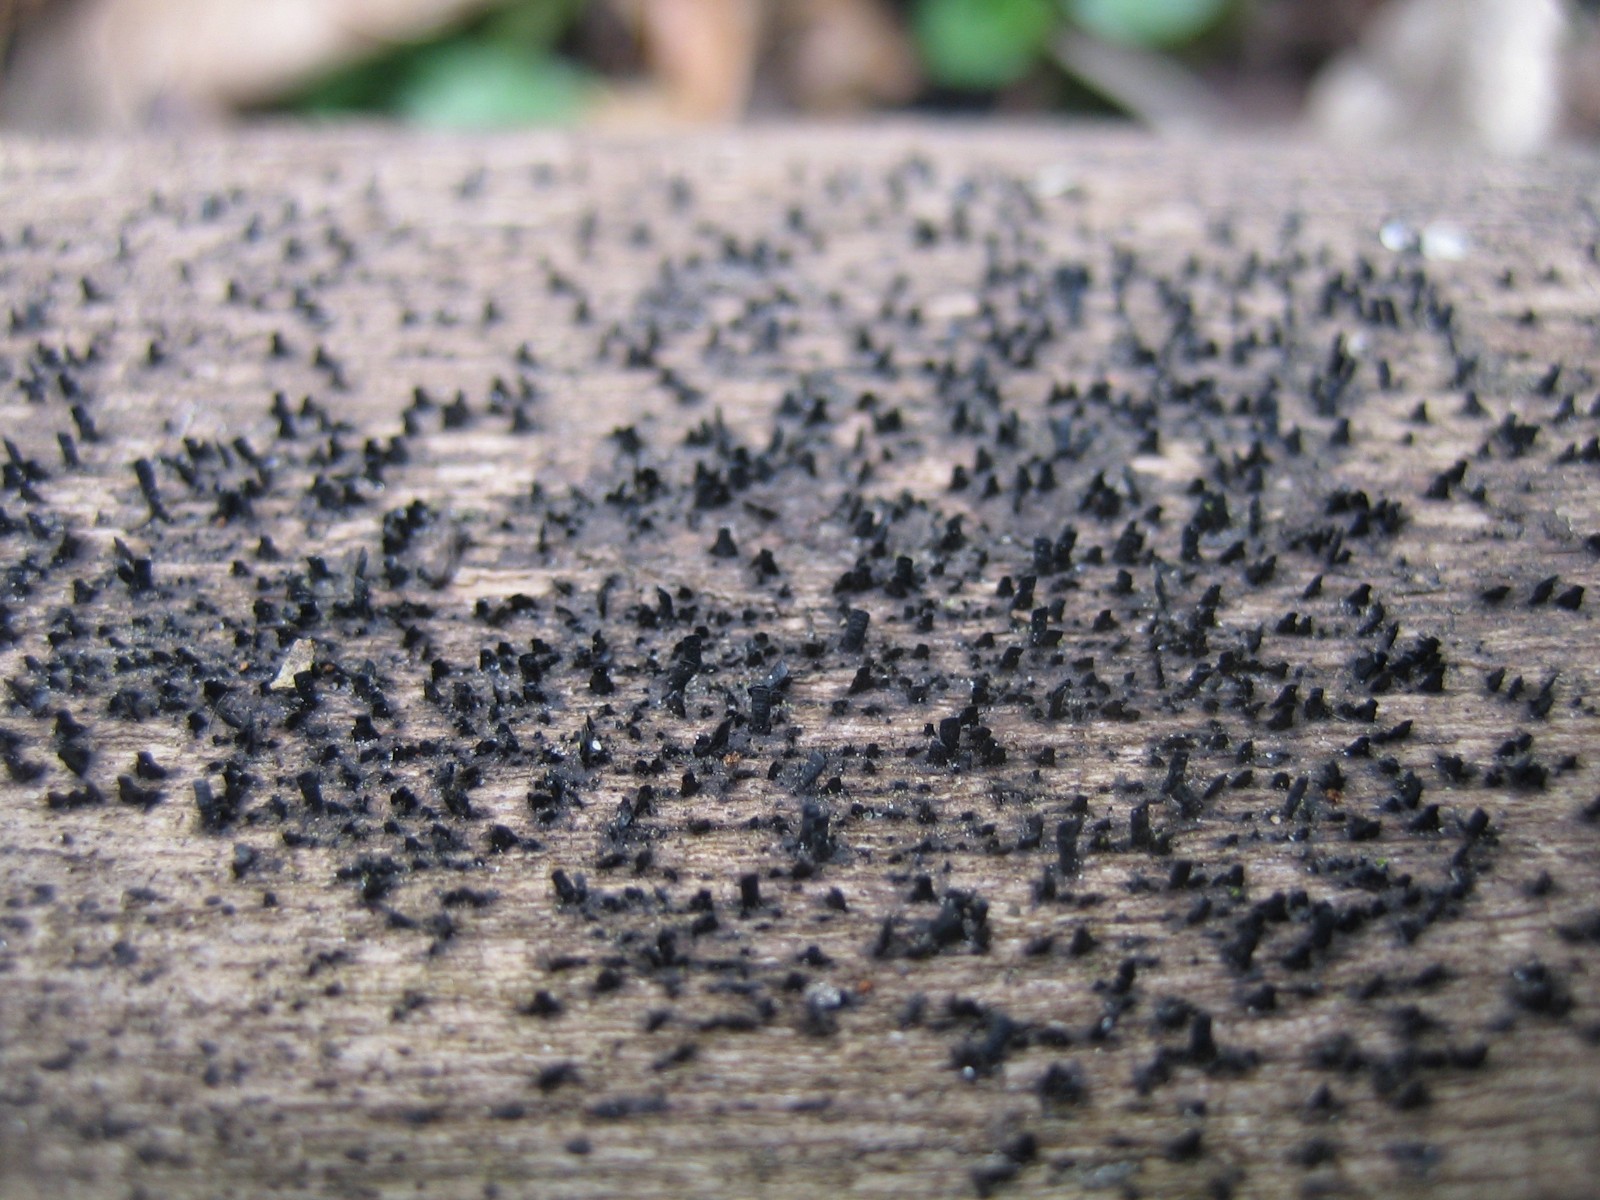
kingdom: Fungi
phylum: Ascomycota
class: Eurotiomycetes
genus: Glyphium
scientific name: Glyphium elatum
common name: kuløkse
